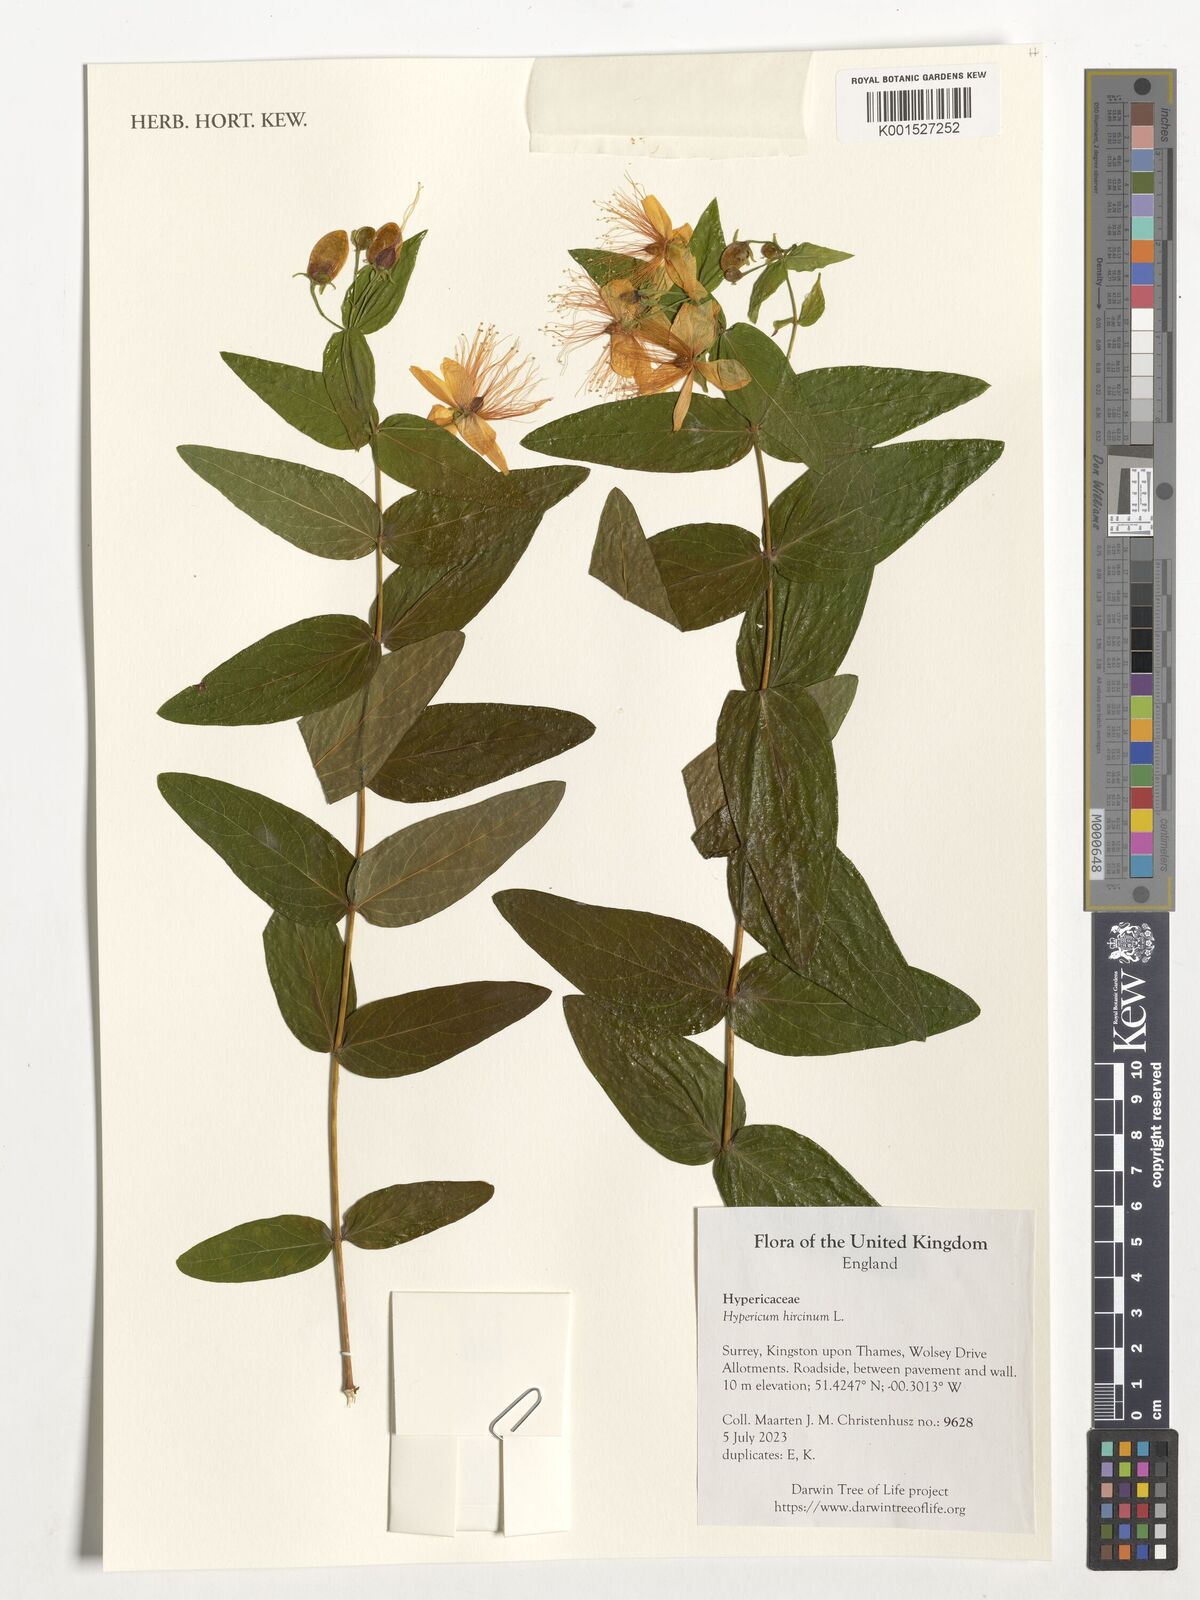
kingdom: Plantae
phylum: Tracheophyta
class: Magnoliopsida
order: Malpighiales
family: Hypericaceae
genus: Hypericum
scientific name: Hypericum hircinum
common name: Stinking tutsan
